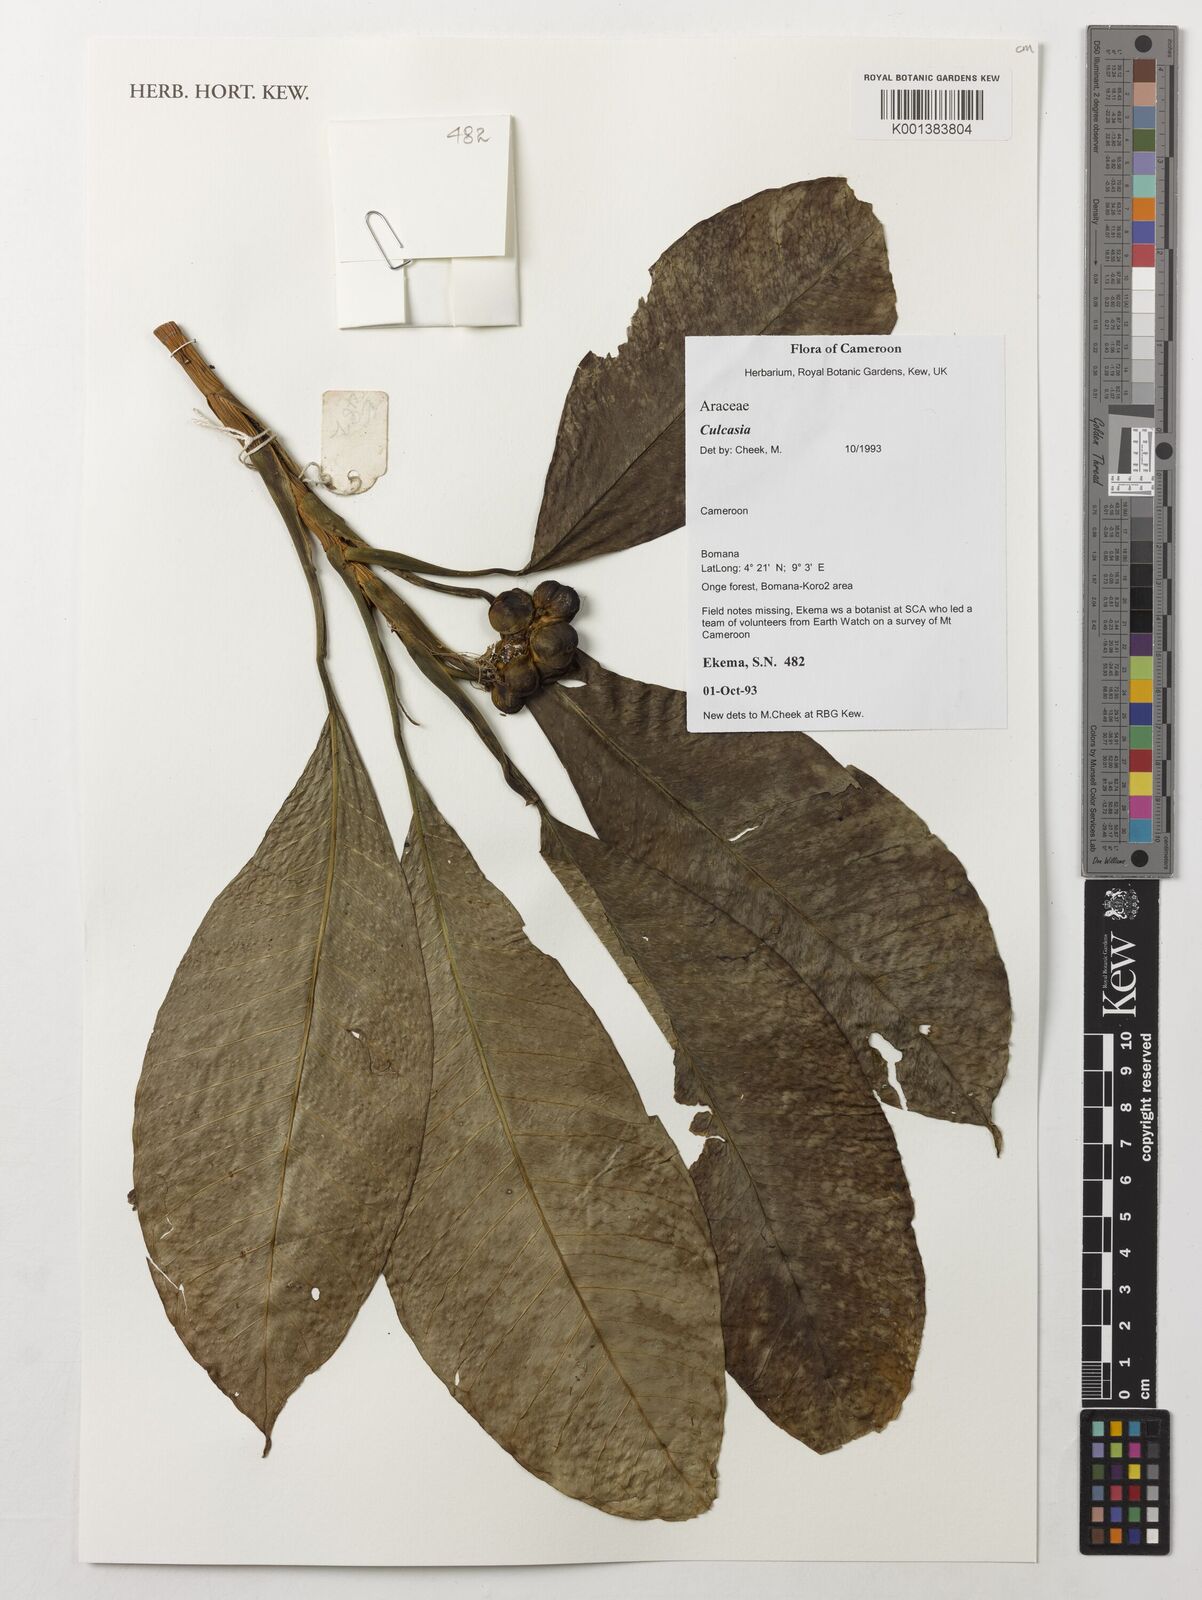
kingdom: Plantae
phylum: Tracheophyta
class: Liliopsida
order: Alismatales
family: Araceae
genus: Culcasia
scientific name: Culcasia
